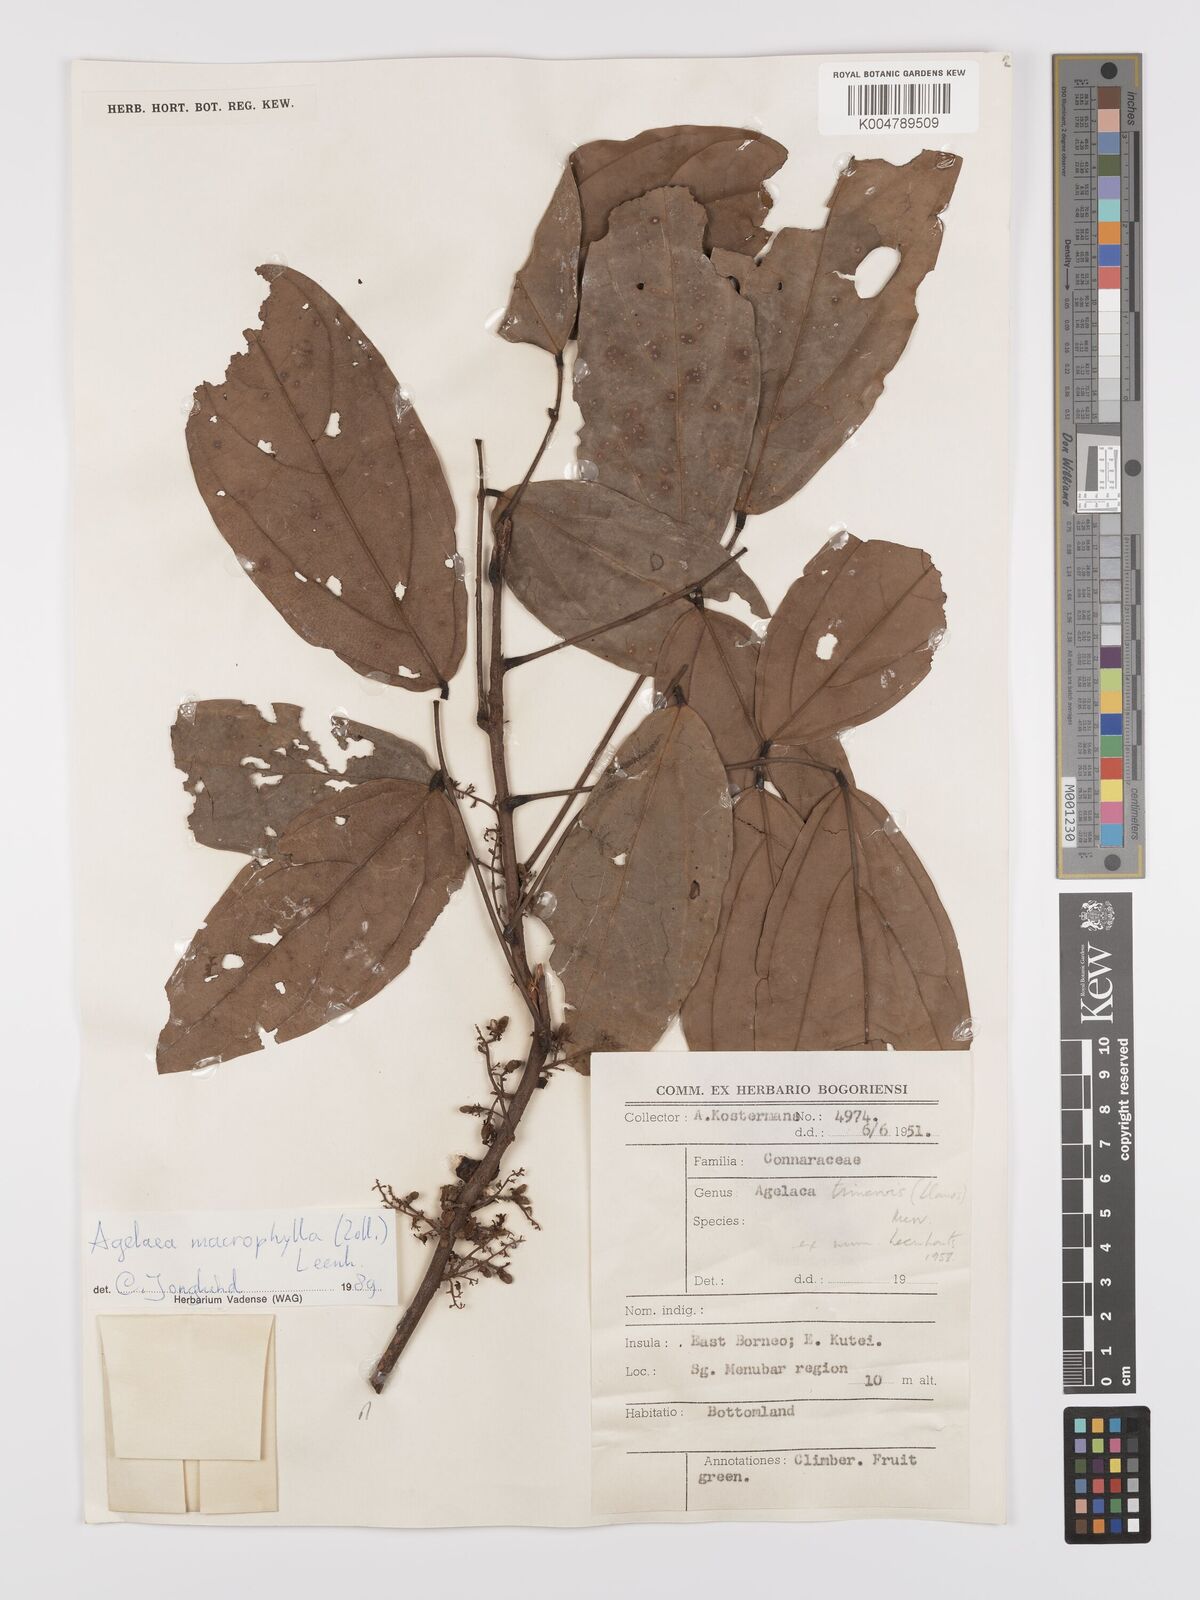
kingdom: Plantae
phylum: Tracheophyta
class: Magnoliopsida
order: Oxalidales
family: Connaraceae
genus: Agelaea
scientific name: Agelaea trinervis
